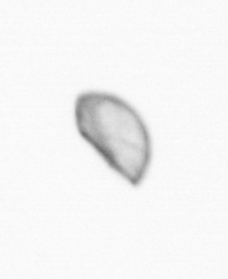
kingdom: Chromista
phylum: Ochrophyta
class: Bacillariophyceae
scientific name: Bacillariophyceae
